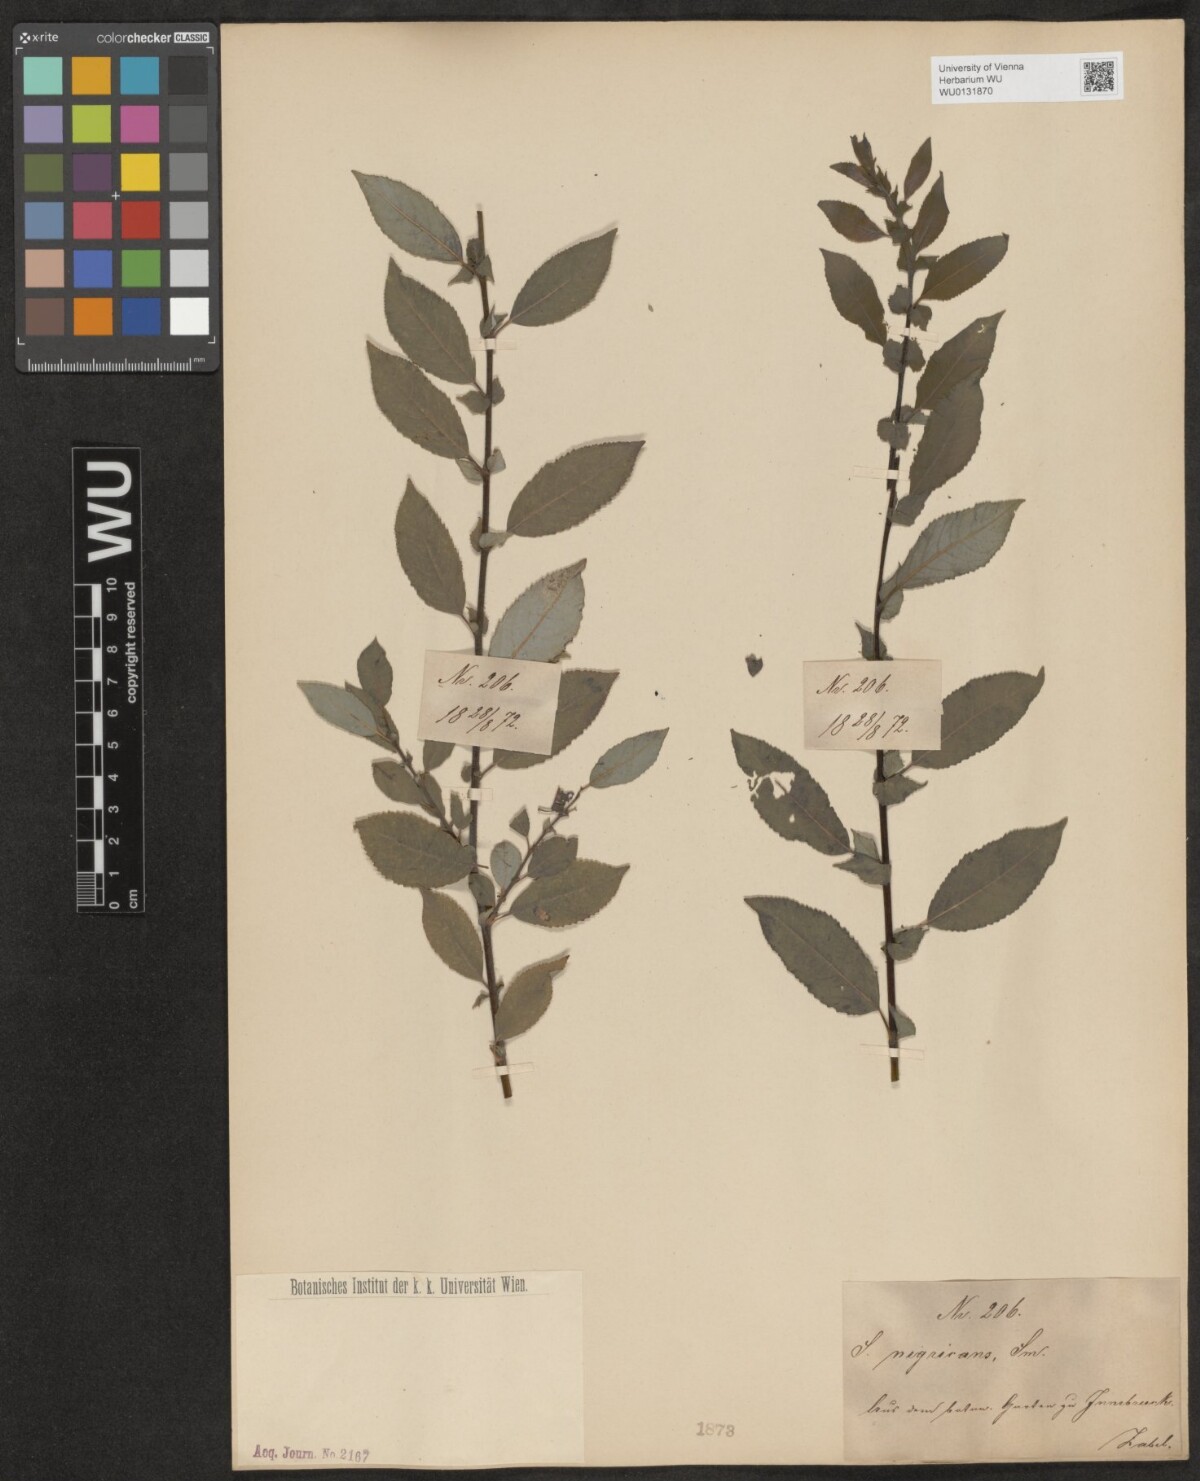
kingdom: Plantae
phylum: Tracheophyta
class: Magnoliopsida
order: Malpighiales
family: Salicaceae
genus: Salix
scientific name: Salix myrsinifolia
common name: Dark-leaved willow
